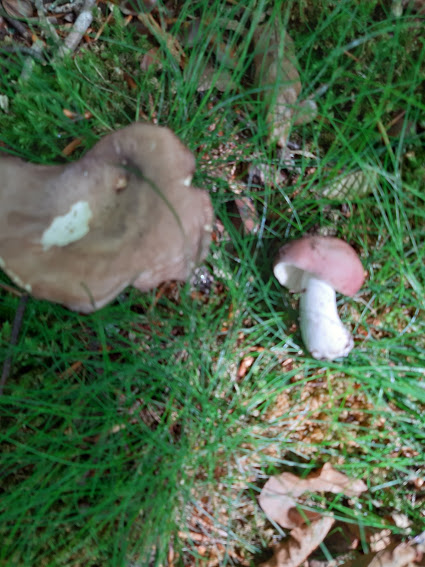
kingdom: Fungi
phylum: Basidiomycota
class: Agaricomycetes
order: Russulales
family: Russulaceae
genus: Russula
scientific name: Russula
